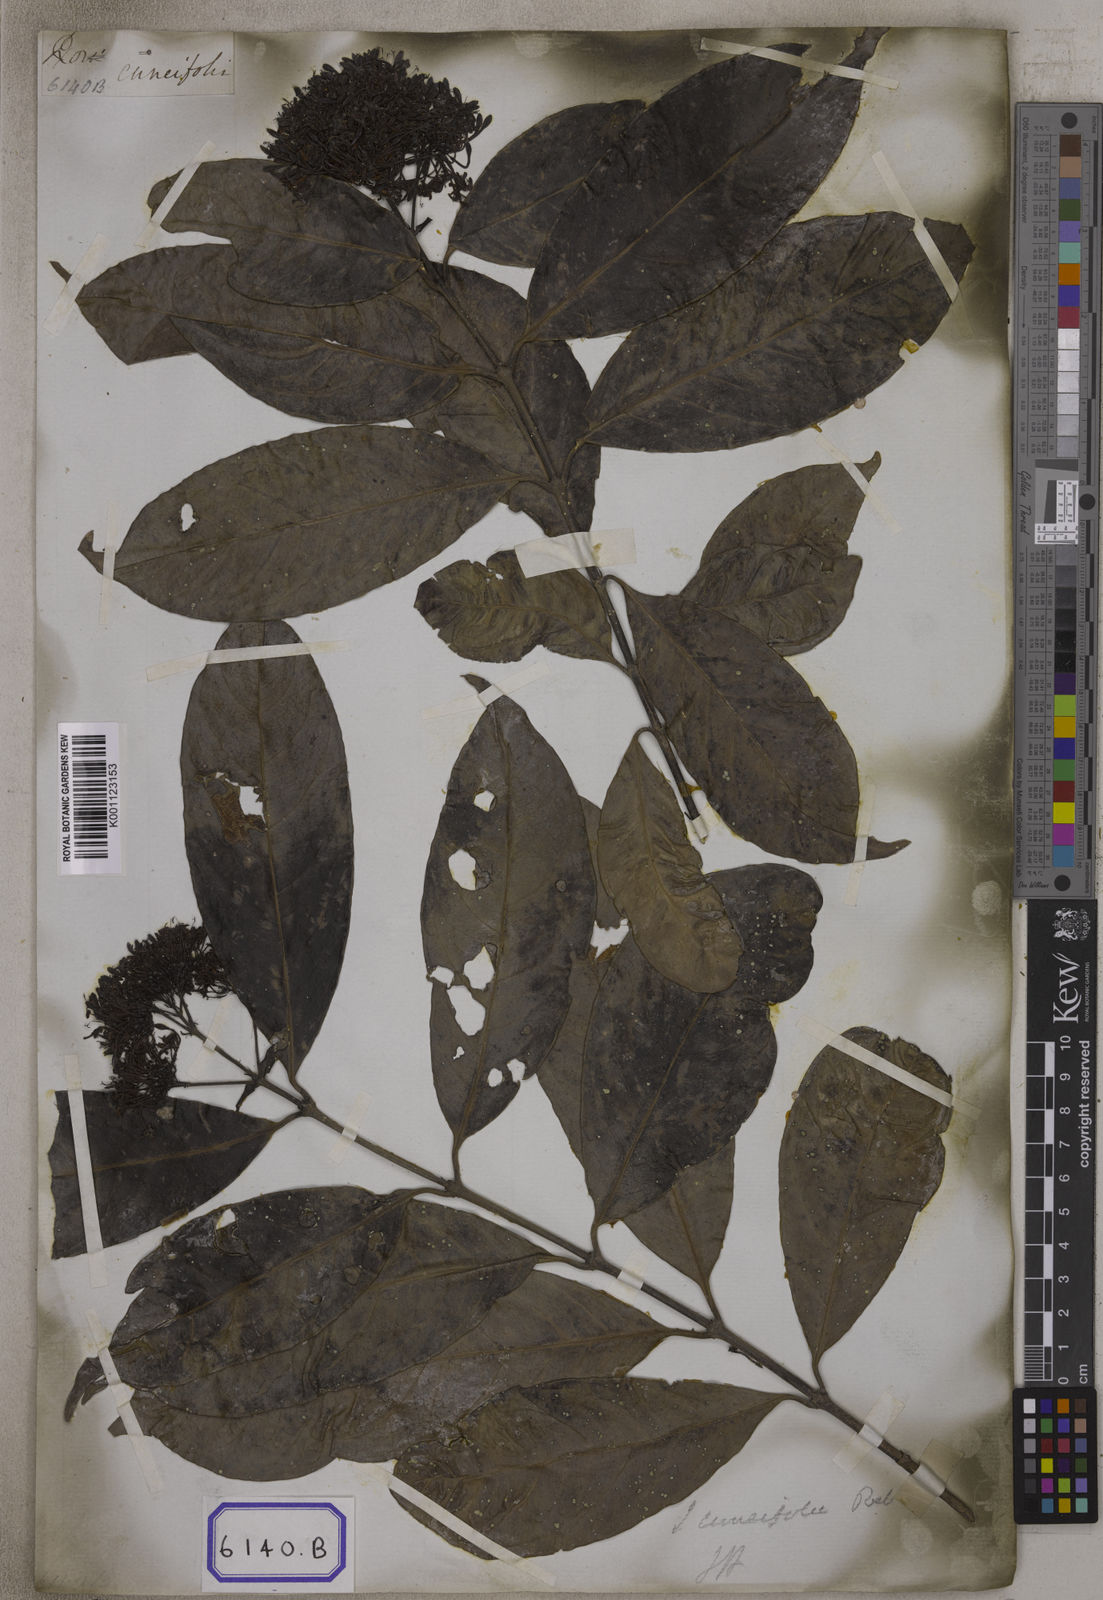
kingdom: Plantae
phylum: Tracheophyta
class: Magnoliopsida
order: Gentianales
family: Rubiaceae
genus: Ixora
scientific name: Ixora cuneifolia
